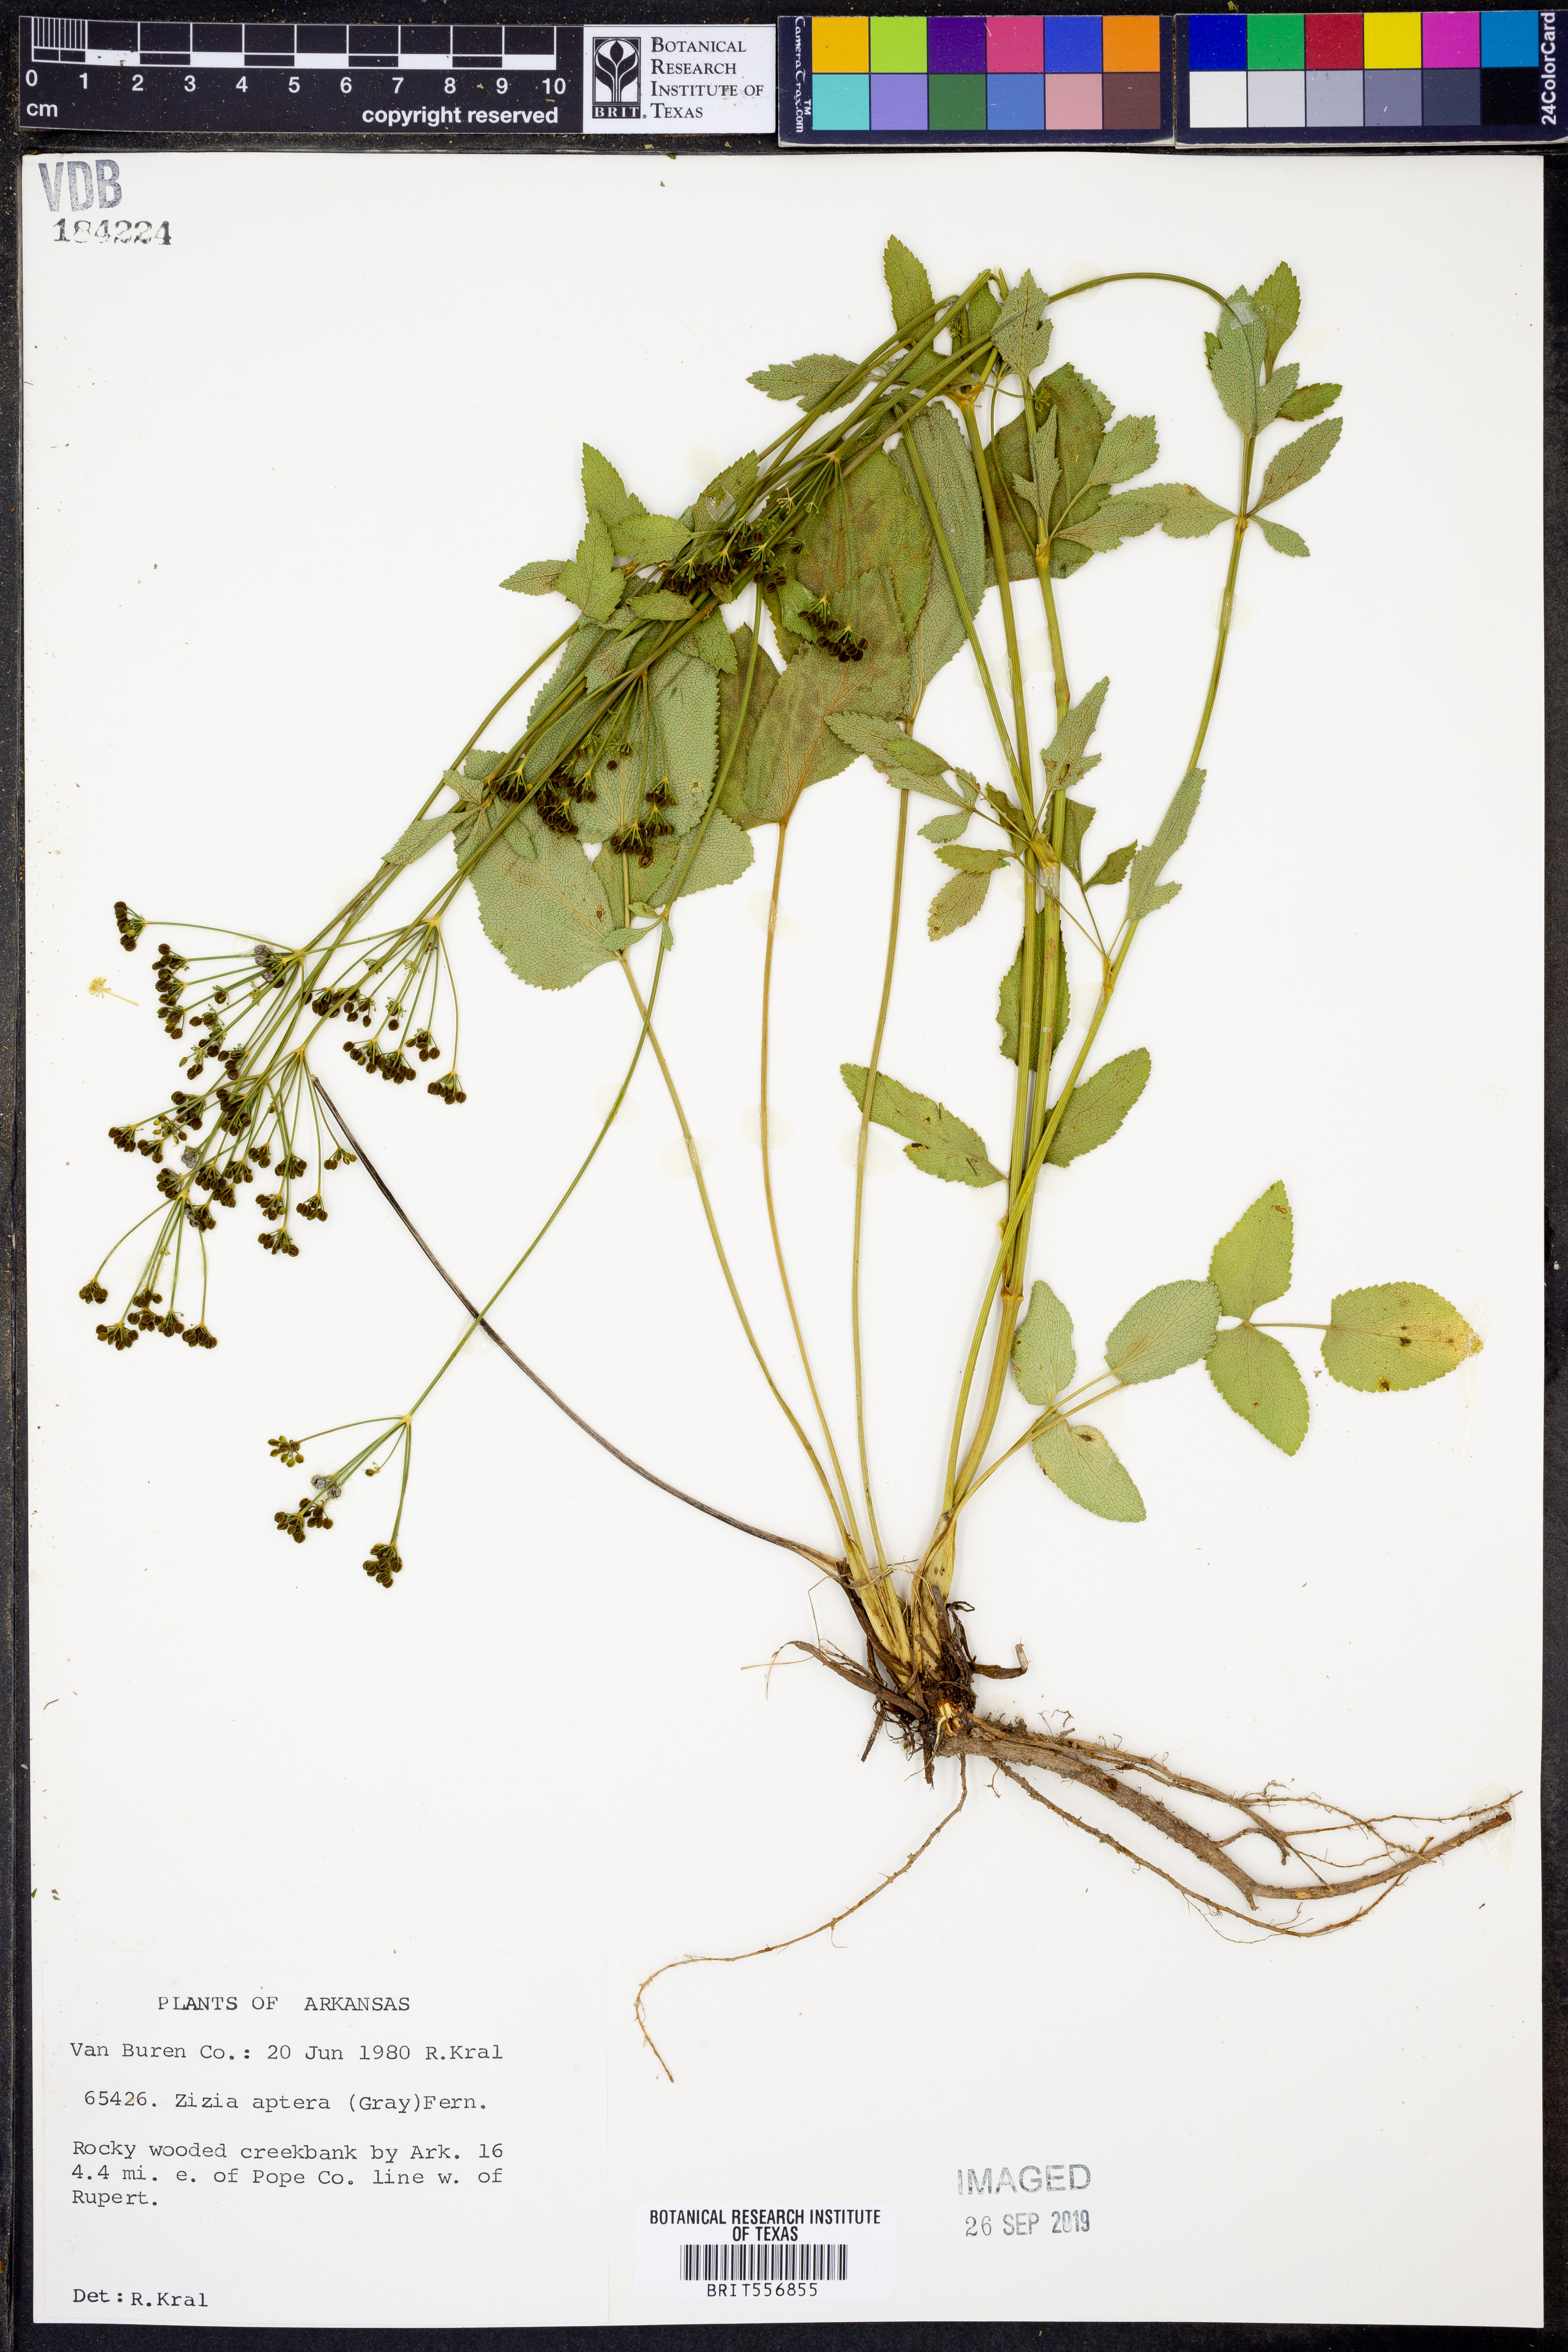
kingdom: Plantae
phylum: Tracheophyta
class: Magnoliopsida
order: Apiales
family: Apiaceae
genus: Zizia
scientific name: Zizia aptera
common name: Heart-leaved alexanders
